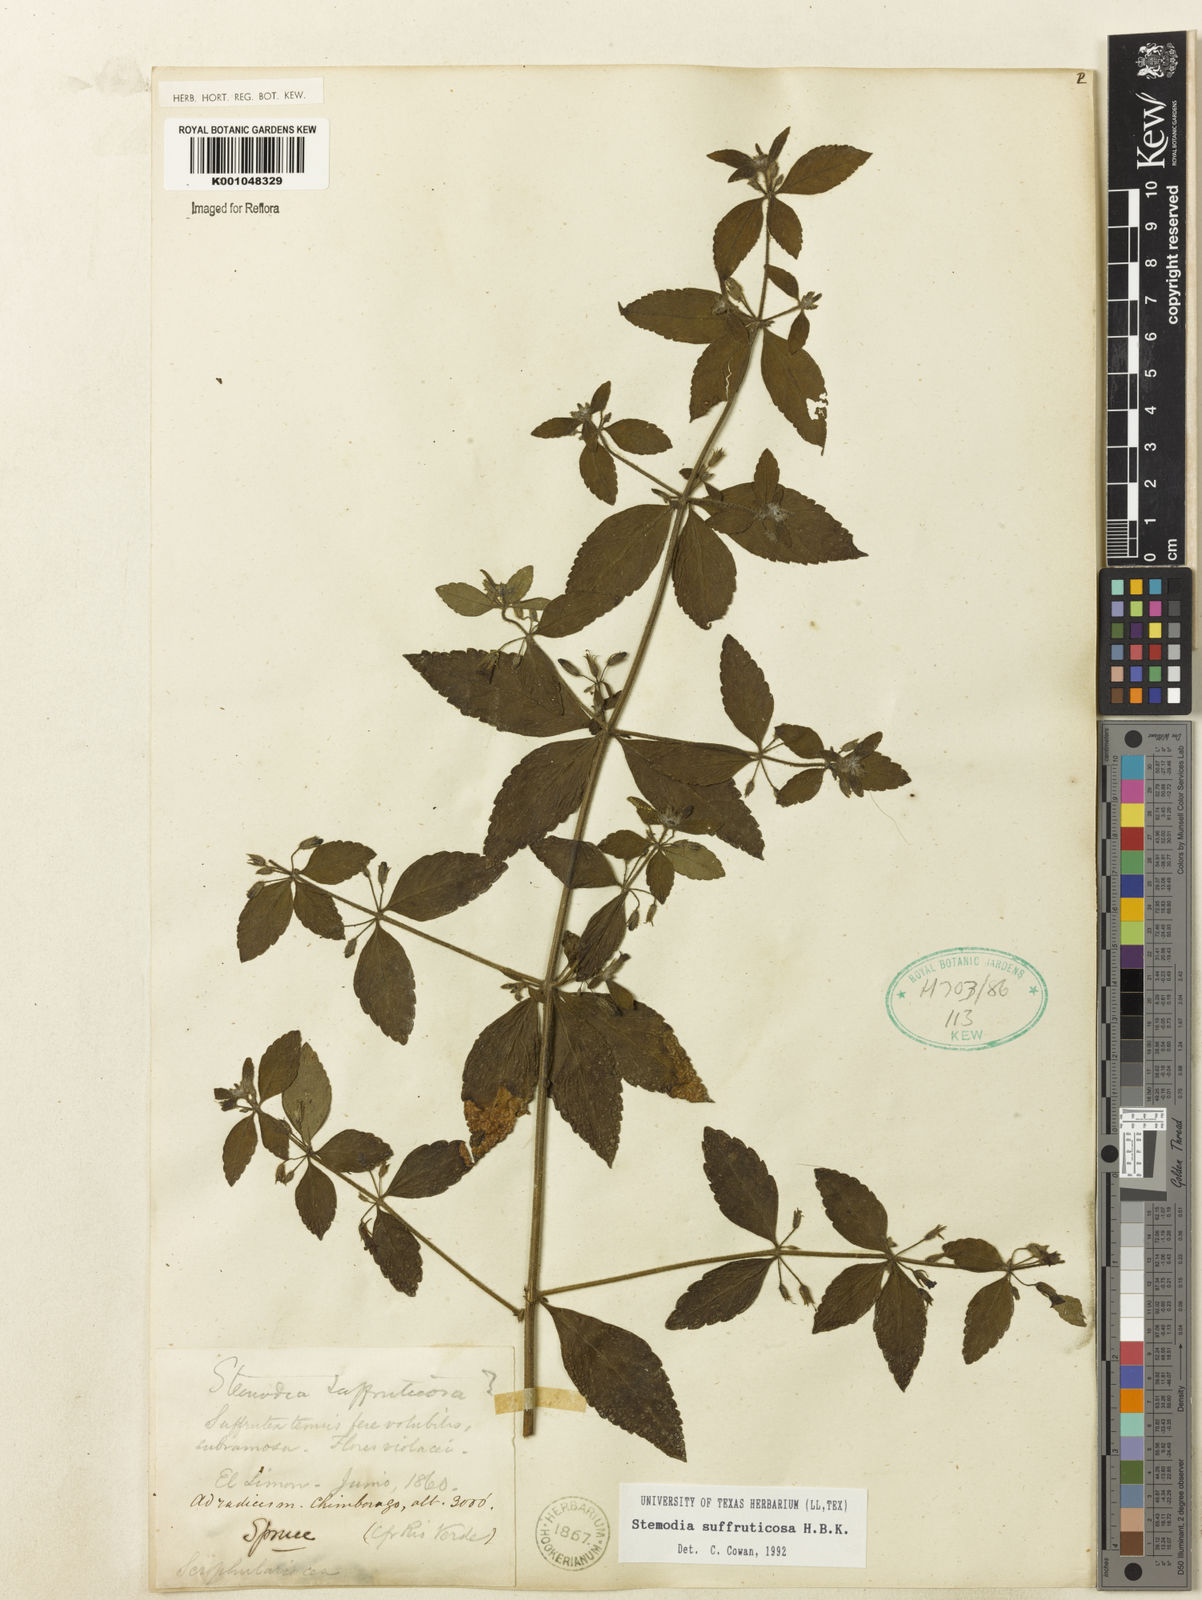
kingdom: Plantae
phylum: Tracheophyta
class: Magnoliopsida
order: Lamiales
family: Plantaginaceae
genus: Stemodia
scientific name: Stemodia
